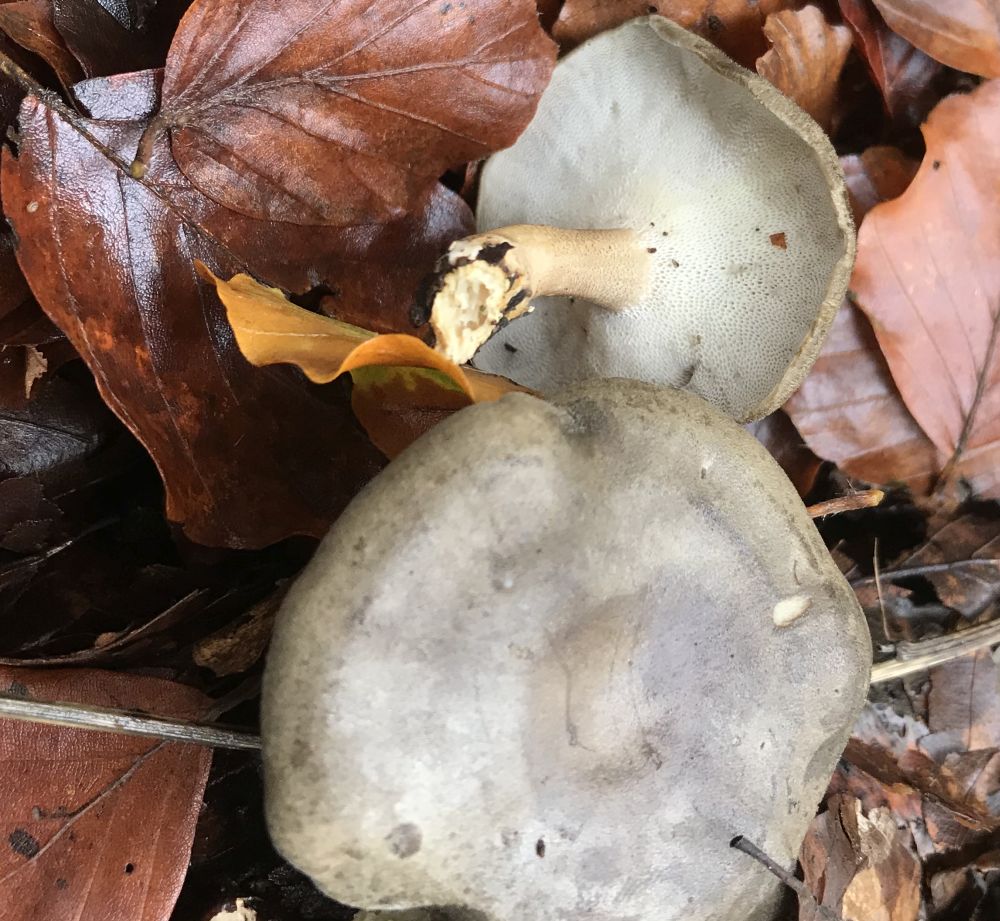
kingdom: Fungi
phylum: Basidiomycota
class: Agaricomycetes
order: Polyporales
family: Polyporaceae
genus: Lentinus
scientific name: Lentinus brumalis
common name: vinter-stilkporesvamp
